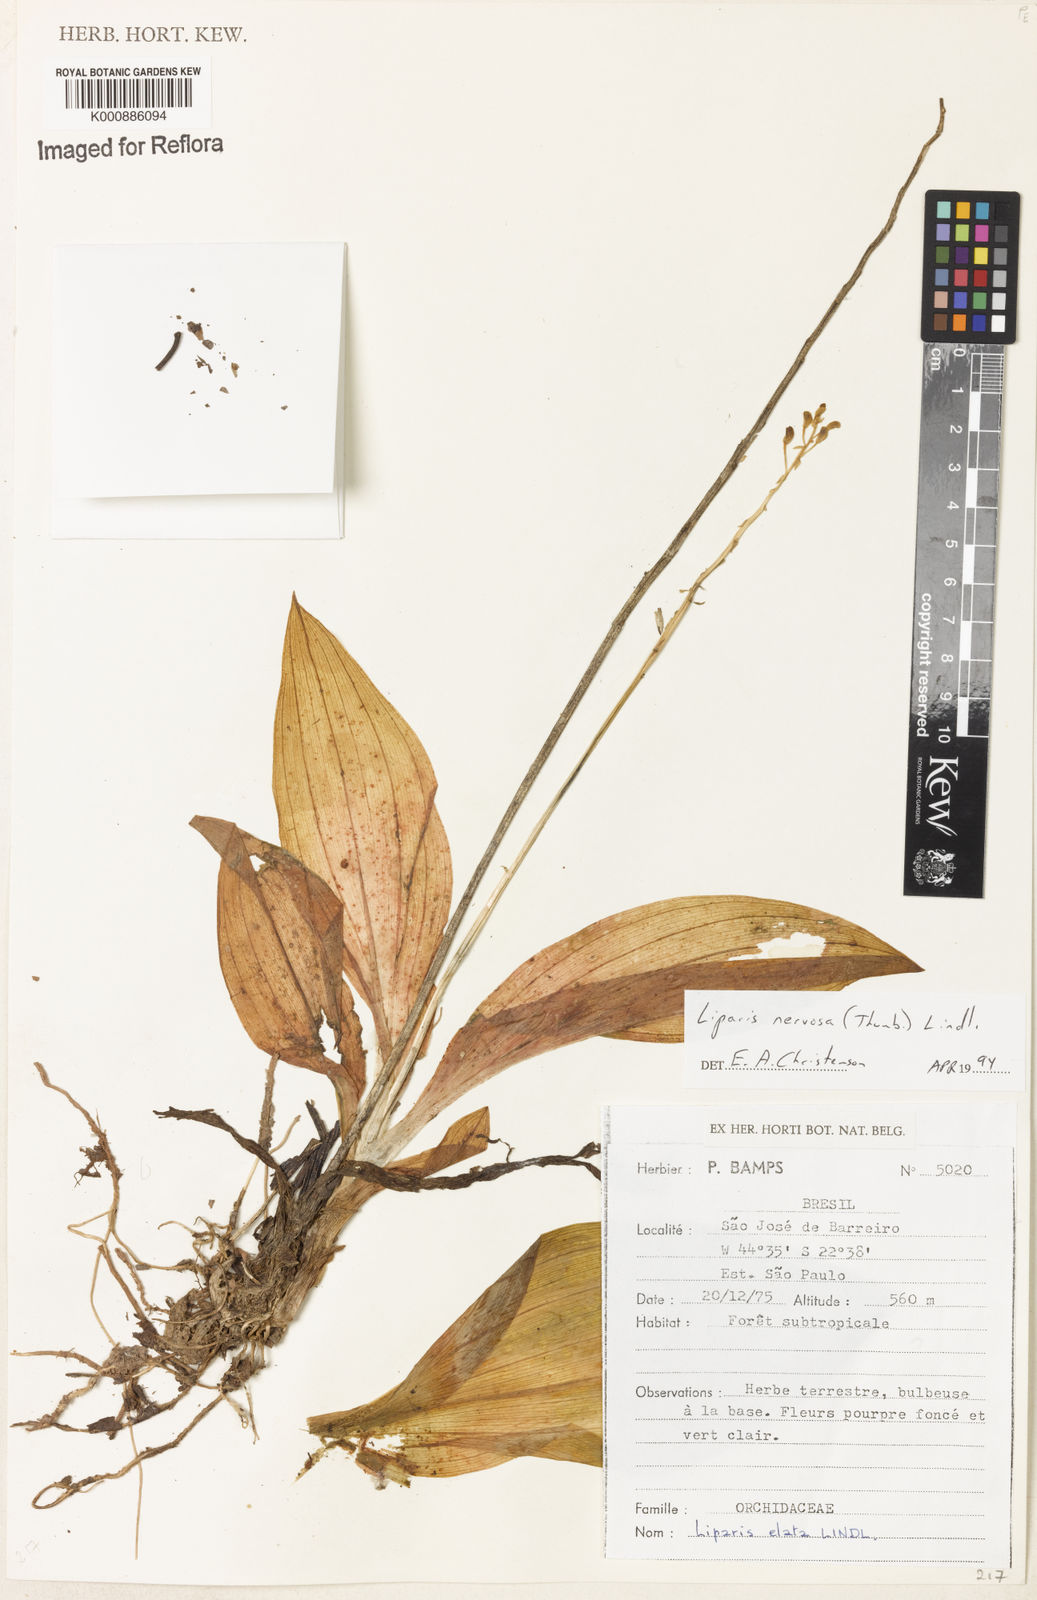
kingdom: Plantae
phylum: Tracheophyta
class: Liliopsida
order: Asparagales
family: Orchidaceae
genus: Liparis
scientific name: Liparis nervosa
